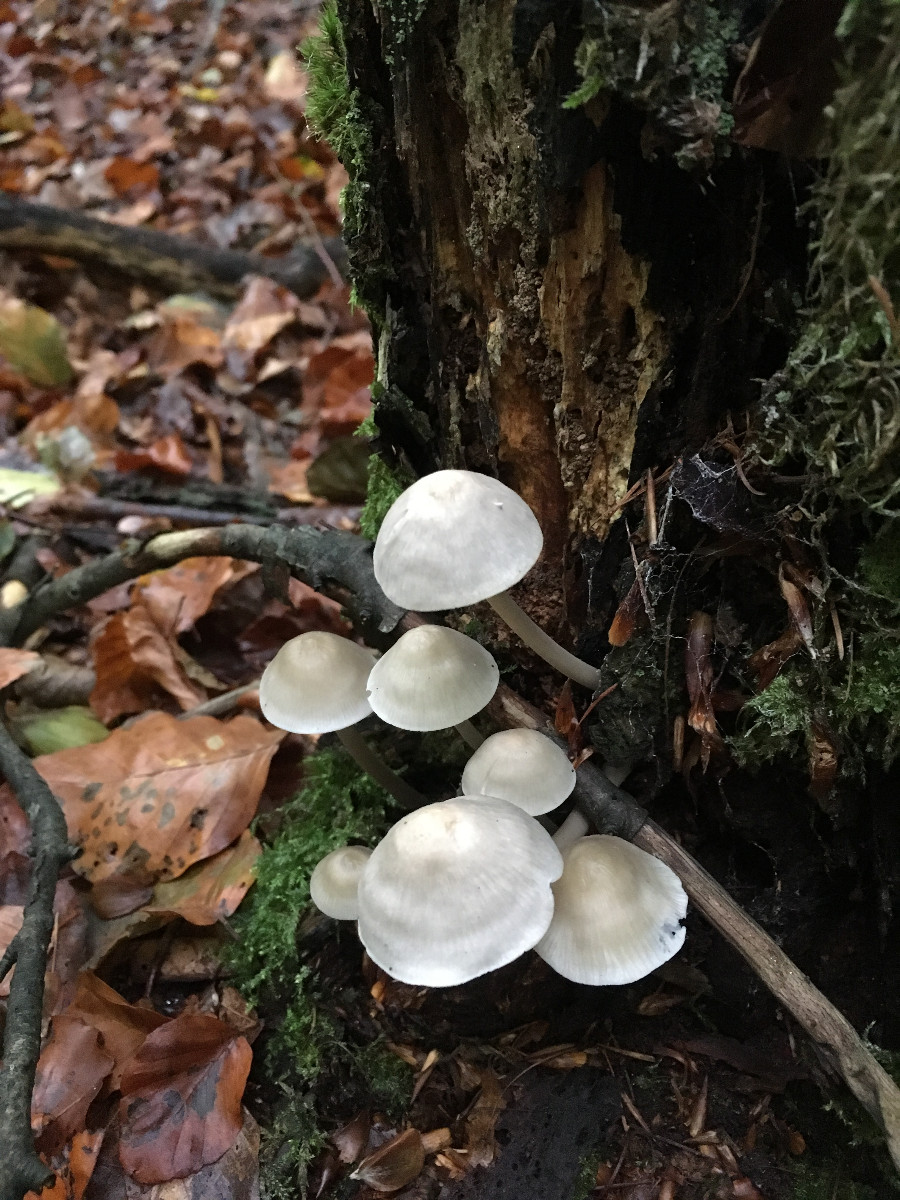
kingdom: Fungi
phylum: Basidiomycota
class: Agaricomycetes
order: Agaricales
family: Mycenaceae
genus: Mycena
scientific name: Mycena galericulata
